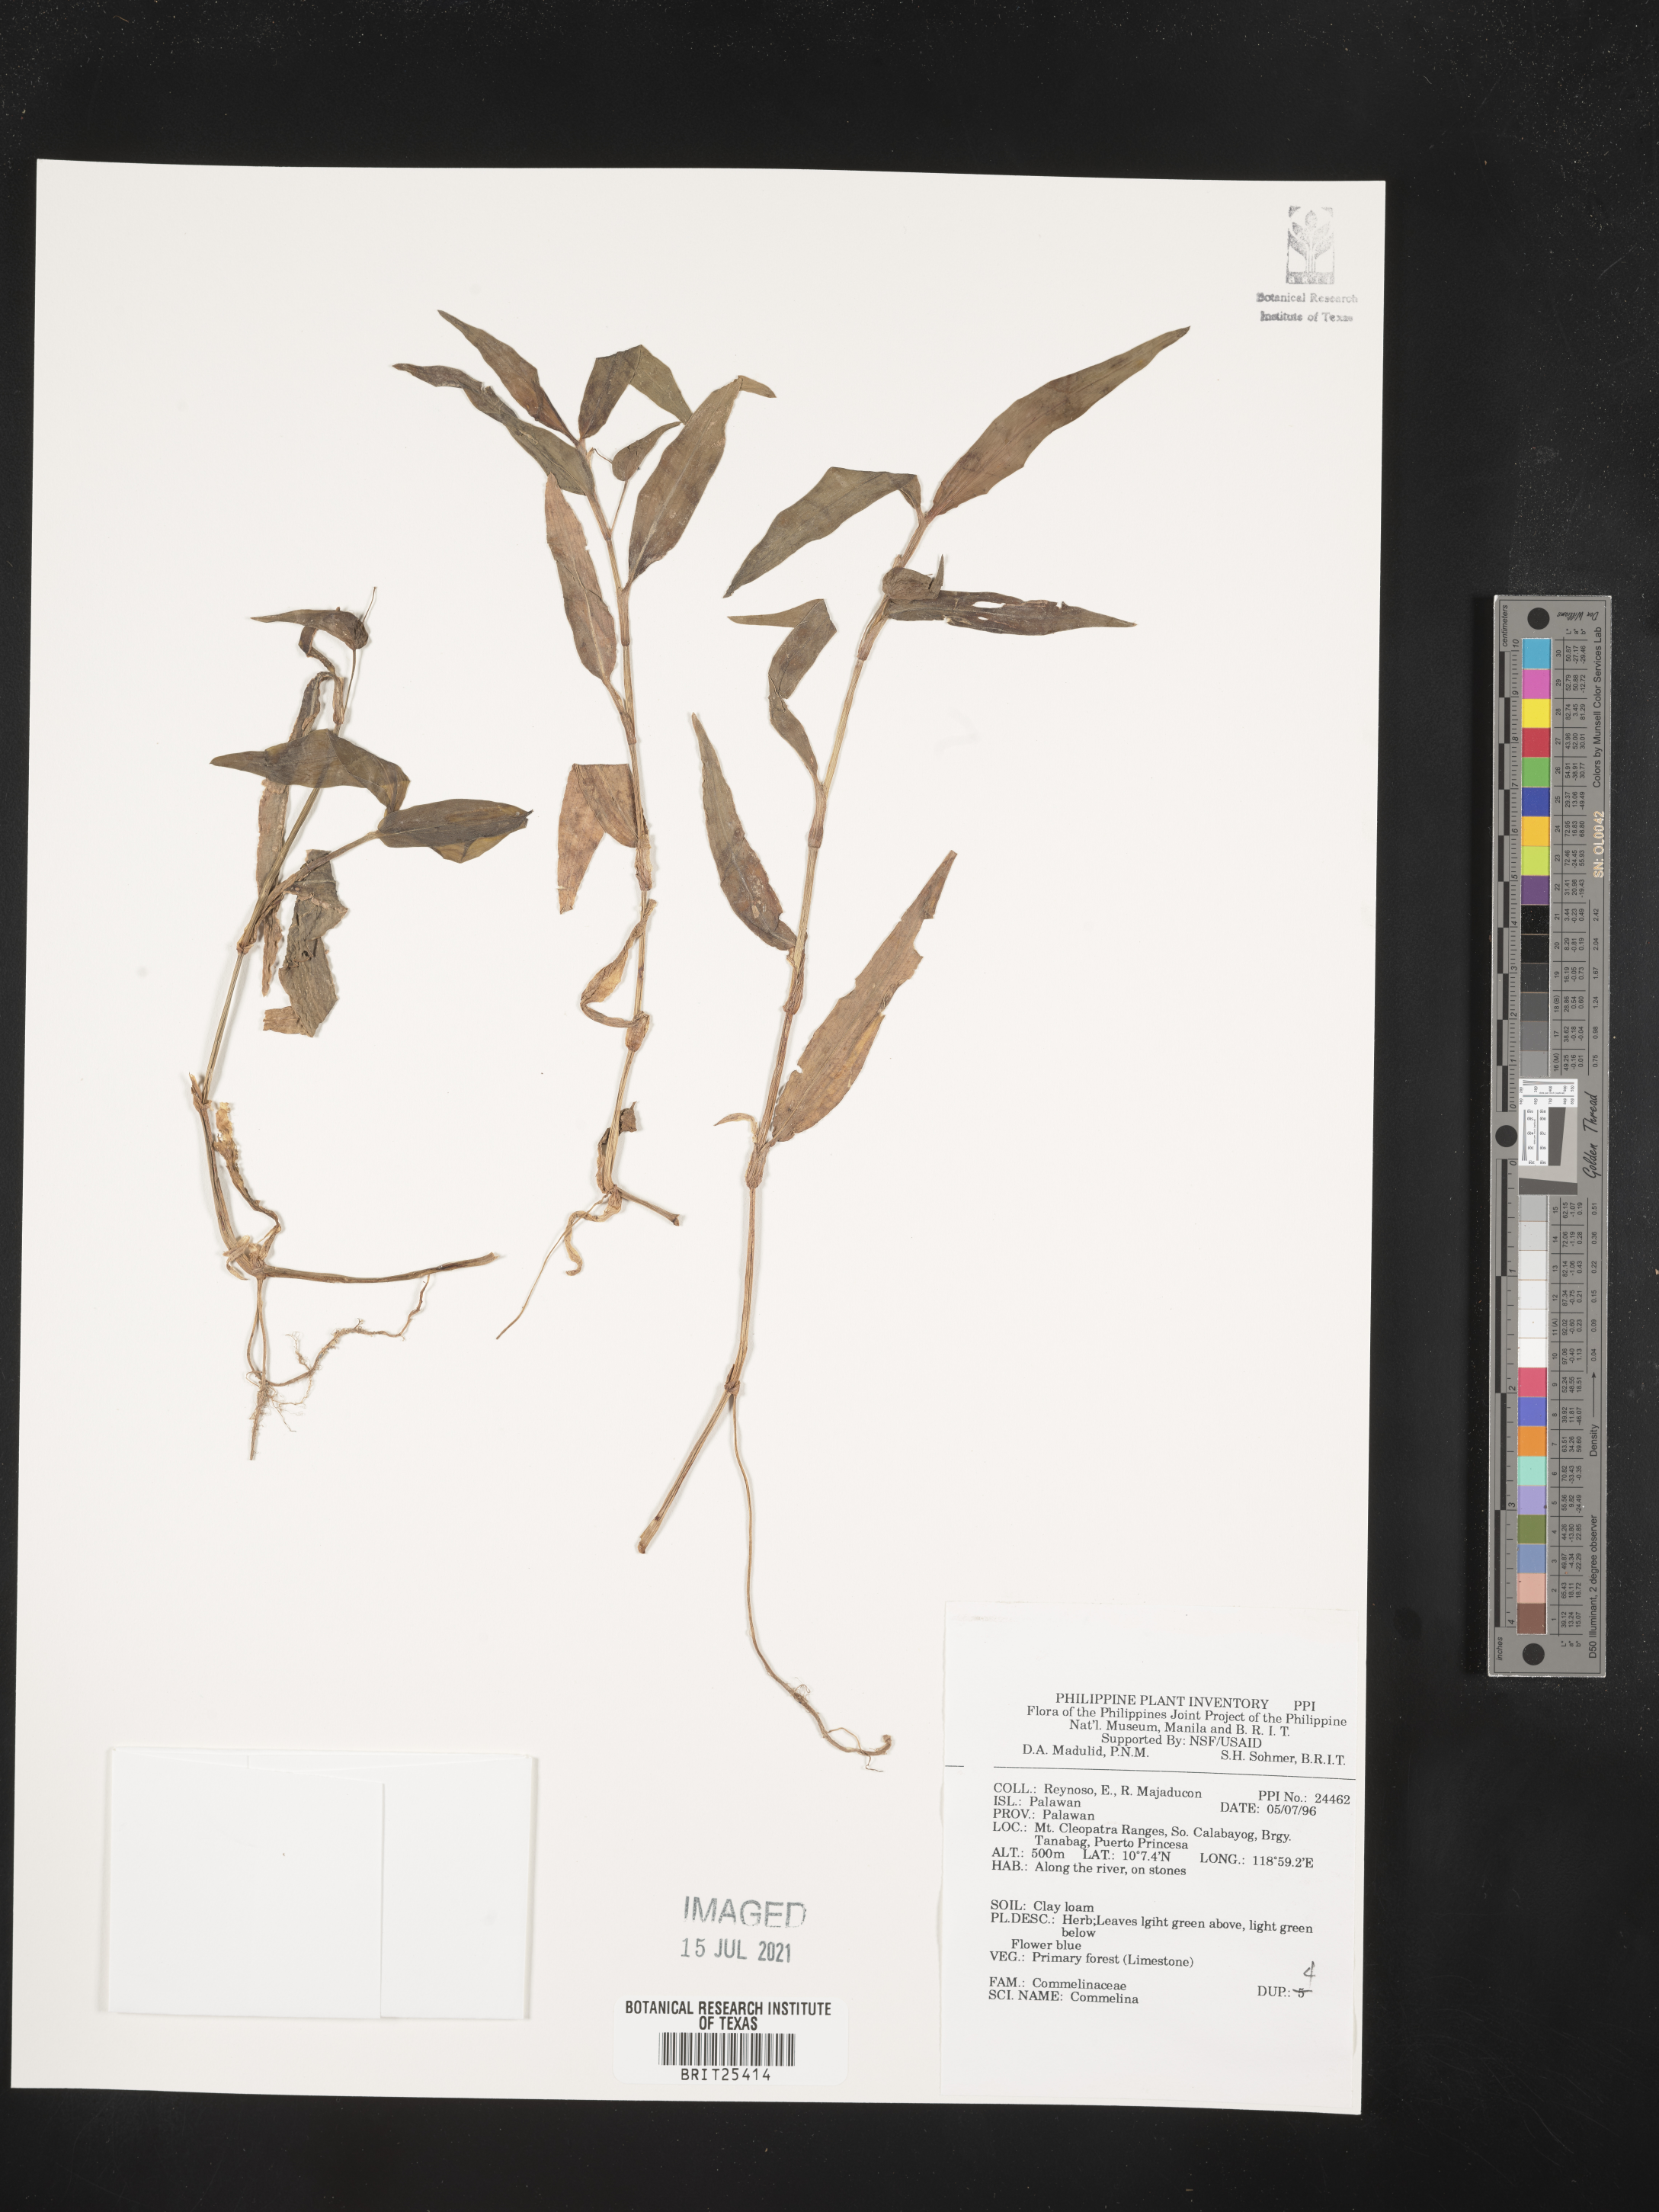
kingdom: Plantae
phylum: Tracheophyta
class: Liliopsida
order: Commelinales
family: Commelinaceae
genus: Commelina
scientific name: Commelina
